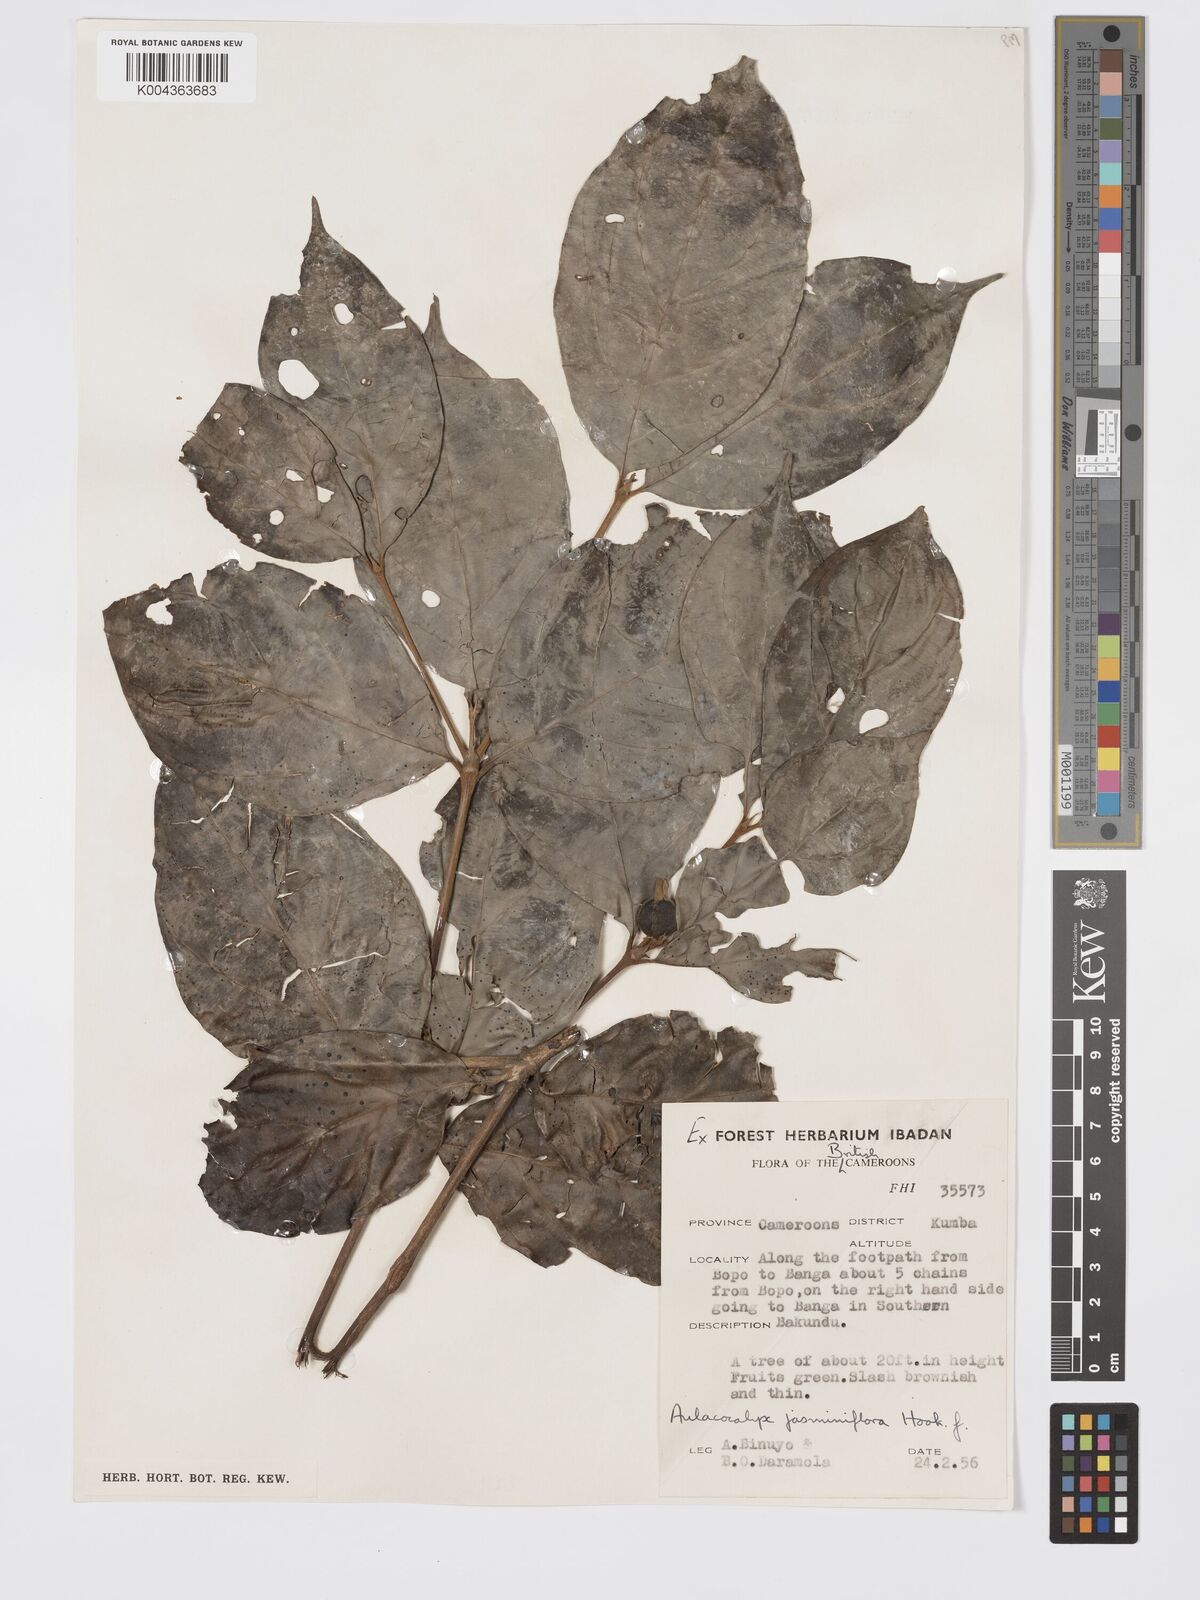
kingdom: Plantae
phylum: Tracheophyta
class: Magnoliopsida
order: Gentianales
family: Rubiaceae
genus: Aulacocalyx
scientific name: Aulacocalyx jasminiflora
